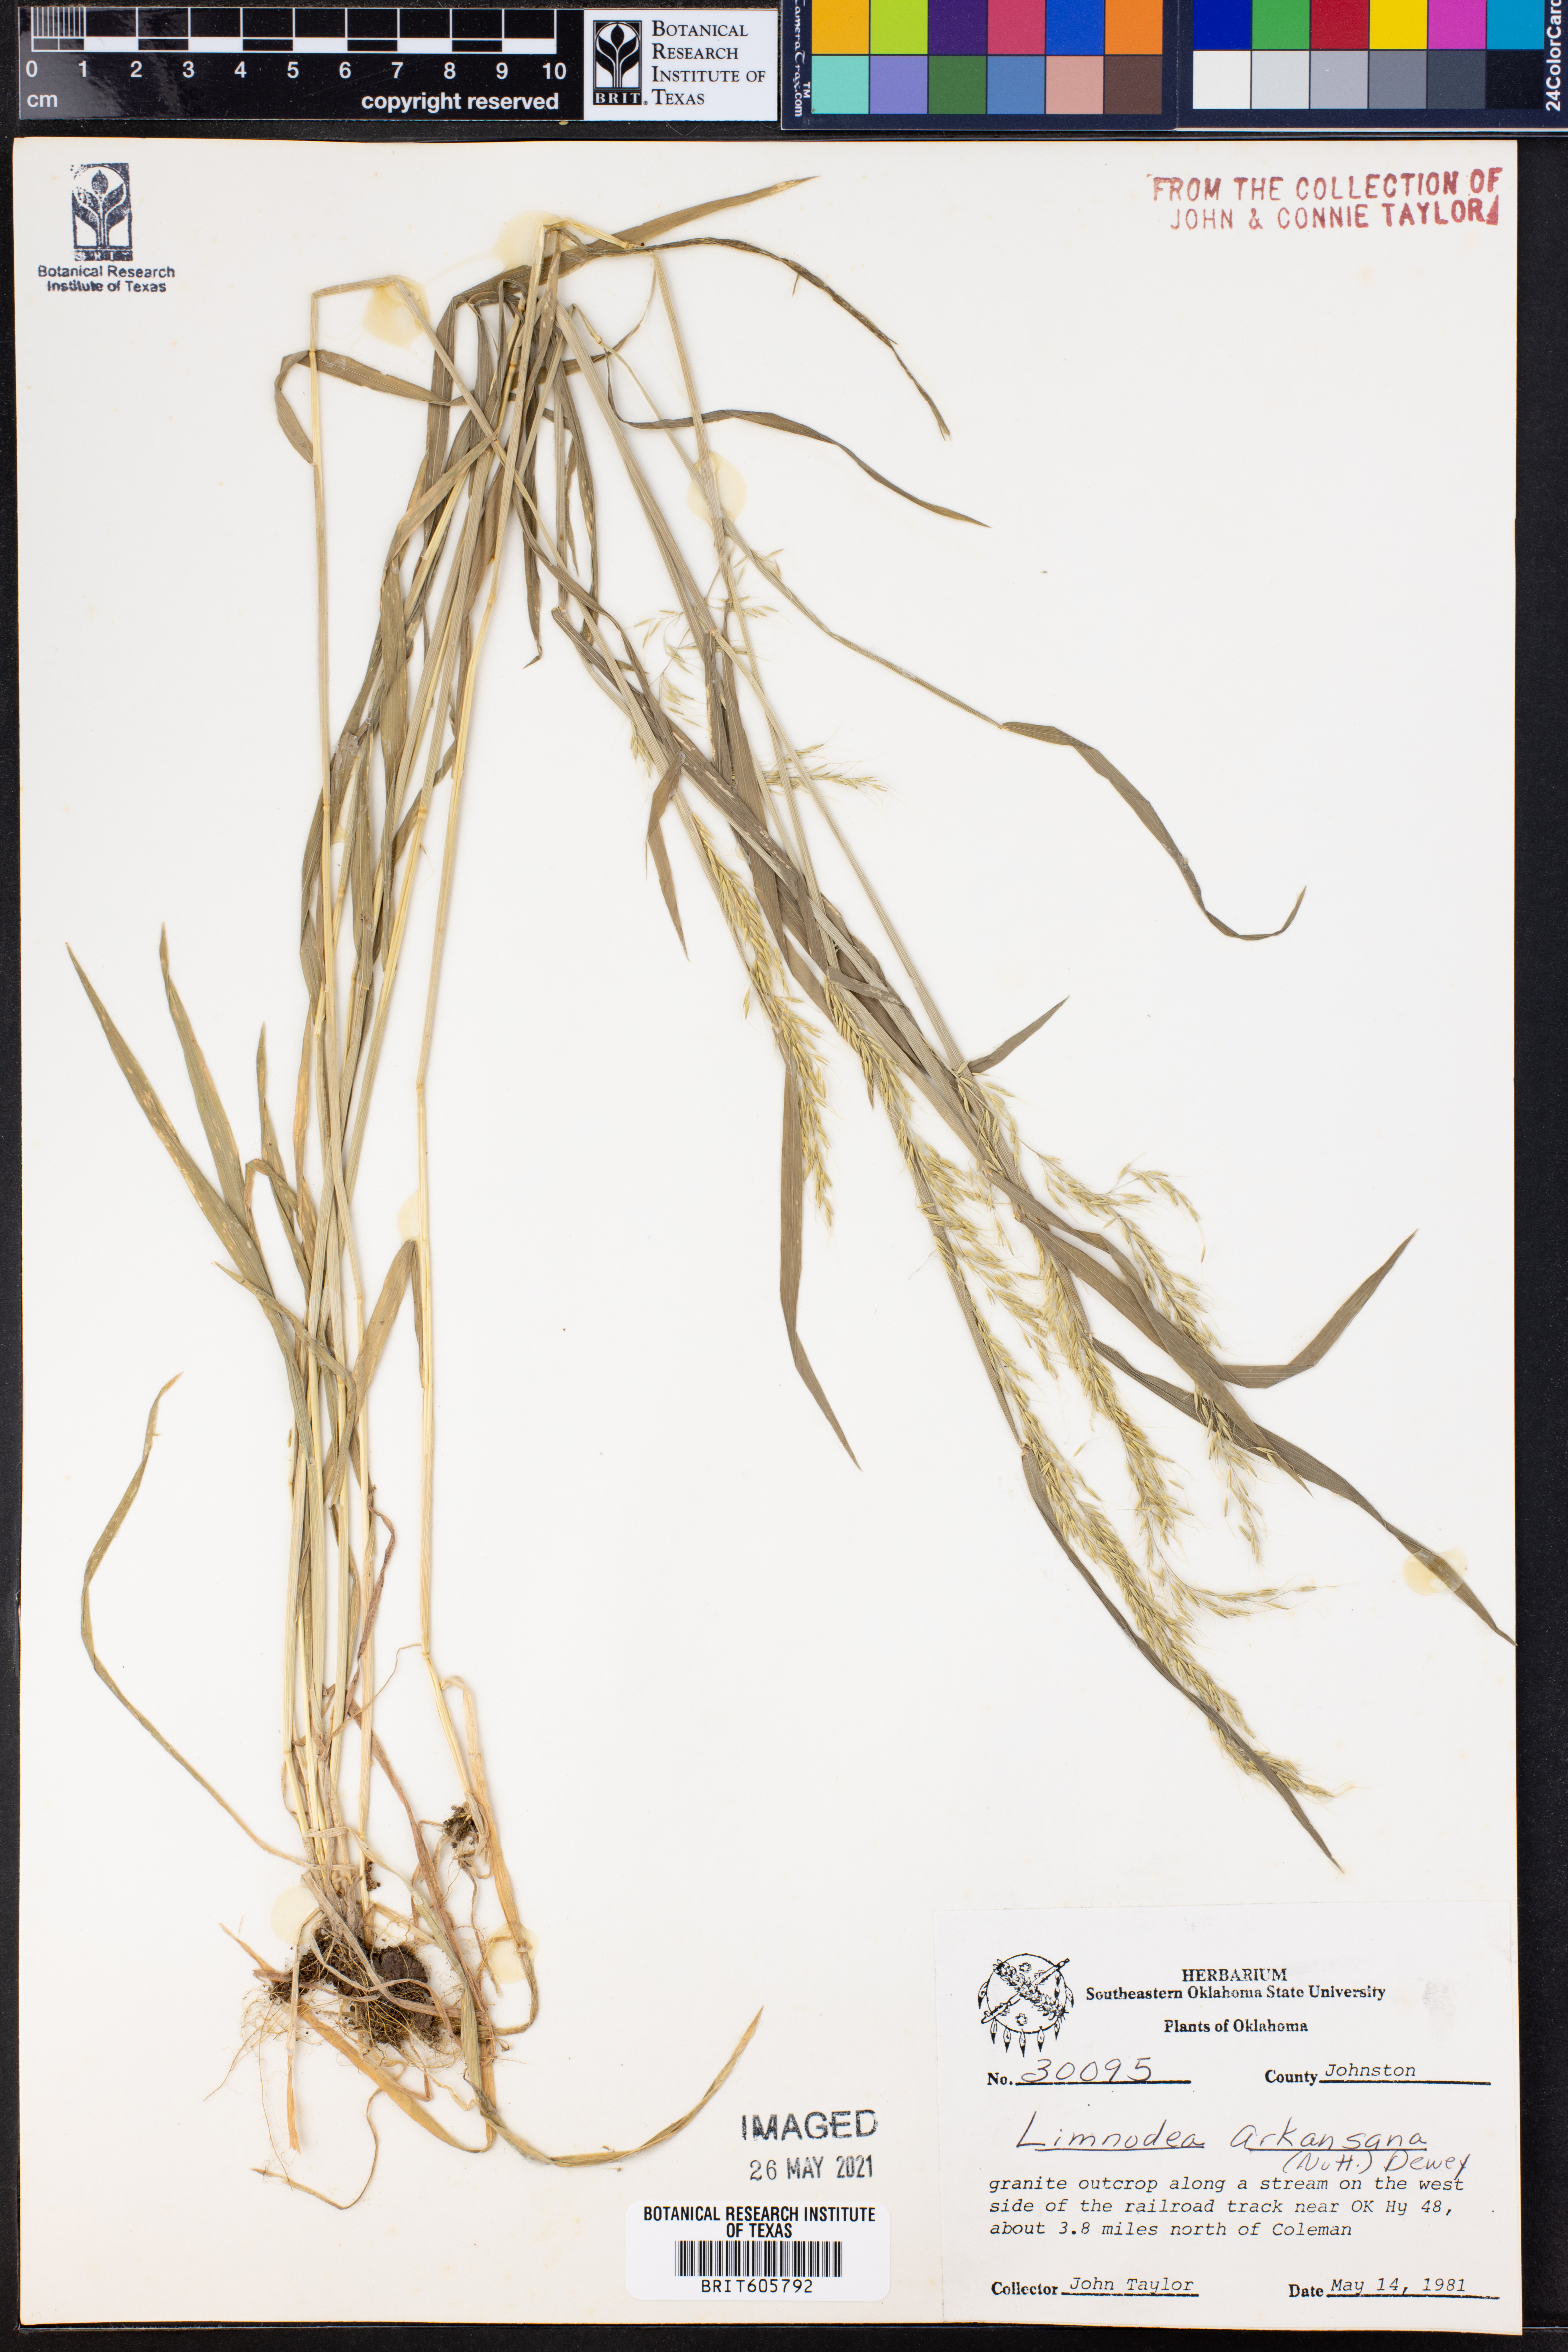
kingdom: Plantae
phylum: Tracheophyta
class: Liliopsida
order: Poales
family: Poaceae
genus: Limnodea
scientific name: Limnodea arkansana
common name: Ozark-grass
